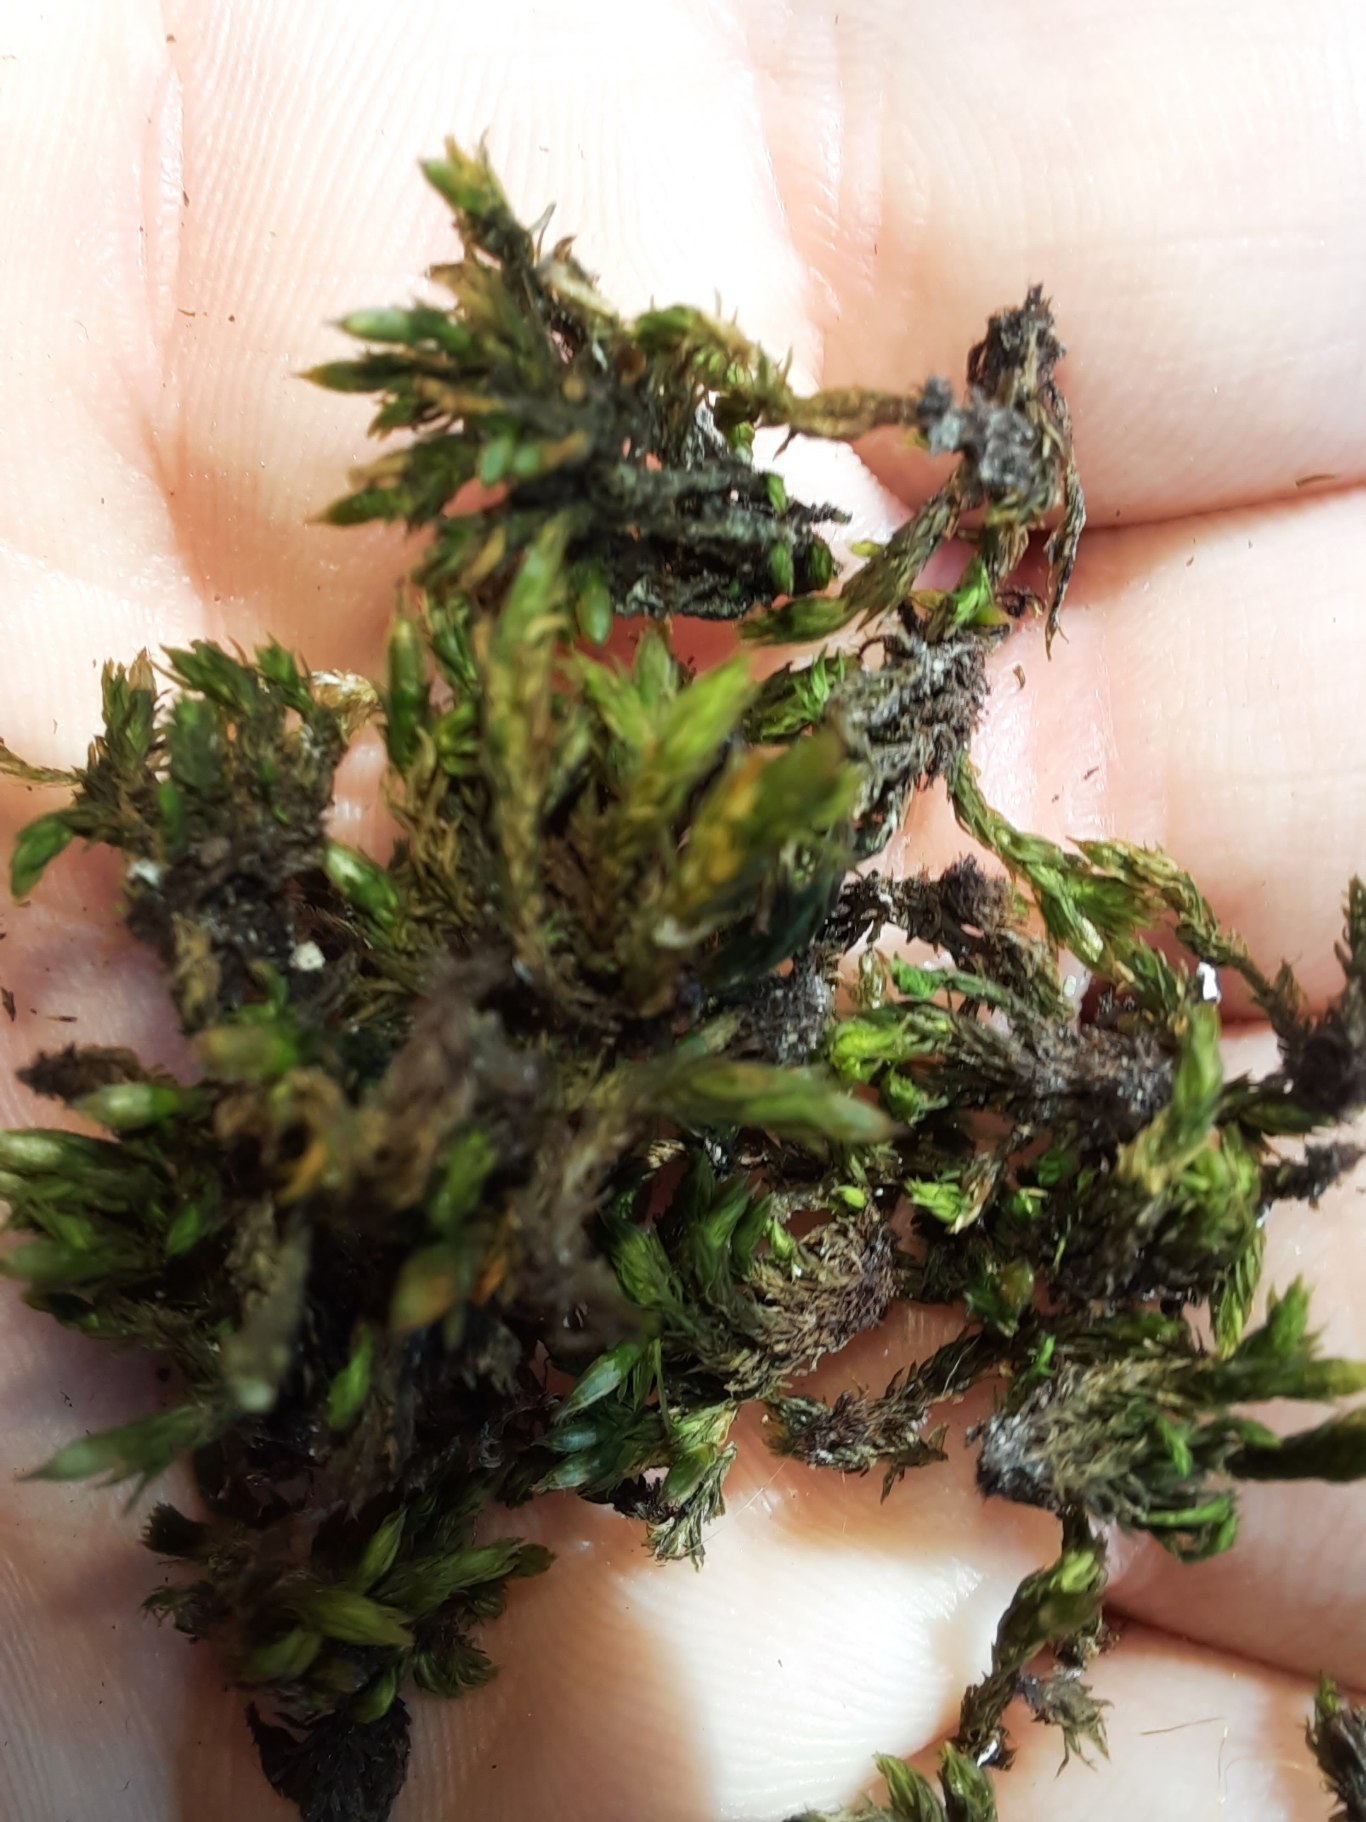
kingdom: Plantae
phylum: Bryophyta
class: Bryopsida
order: Orthotrichales
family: Orthotrichaceae
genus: Lewinskya
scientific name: Lewinskya affinis
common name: Almindelig furehætte
